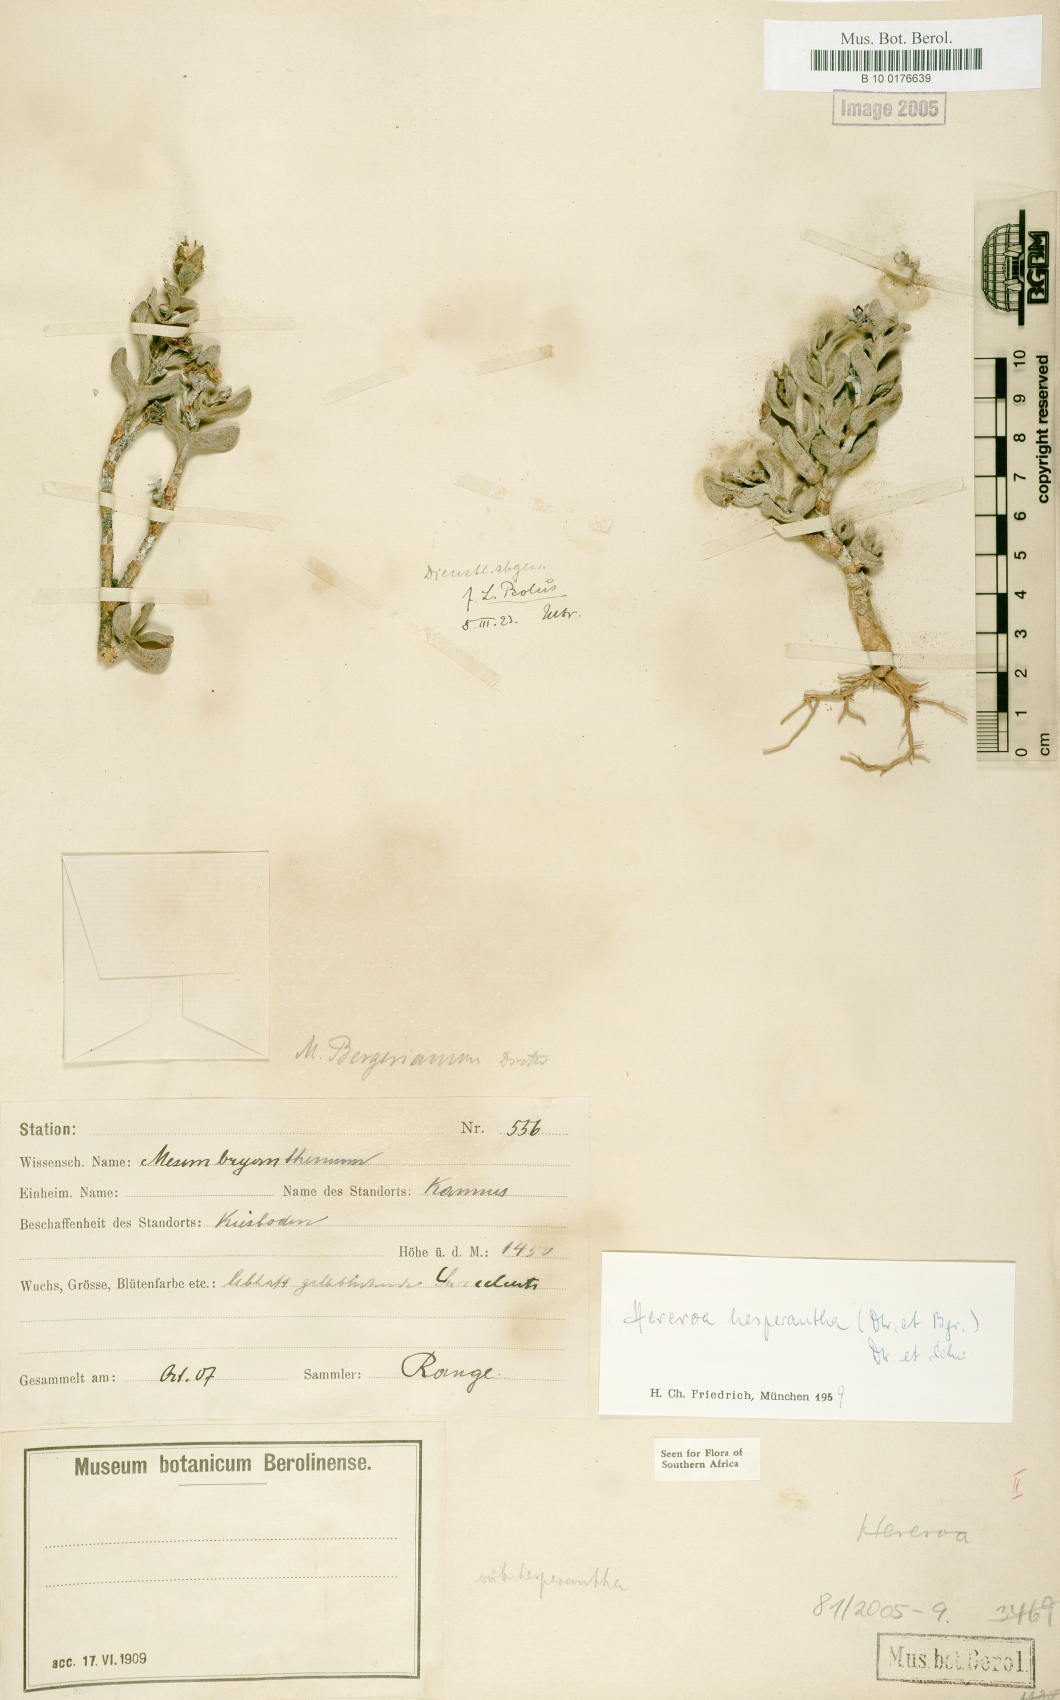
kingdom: Plantae
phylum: Tracheophyta
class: Magnoliopsida
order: Caryophyllales
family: Aizoaceae
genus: Dracophilus
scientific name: Dracophilus Hereroa hesperantha
